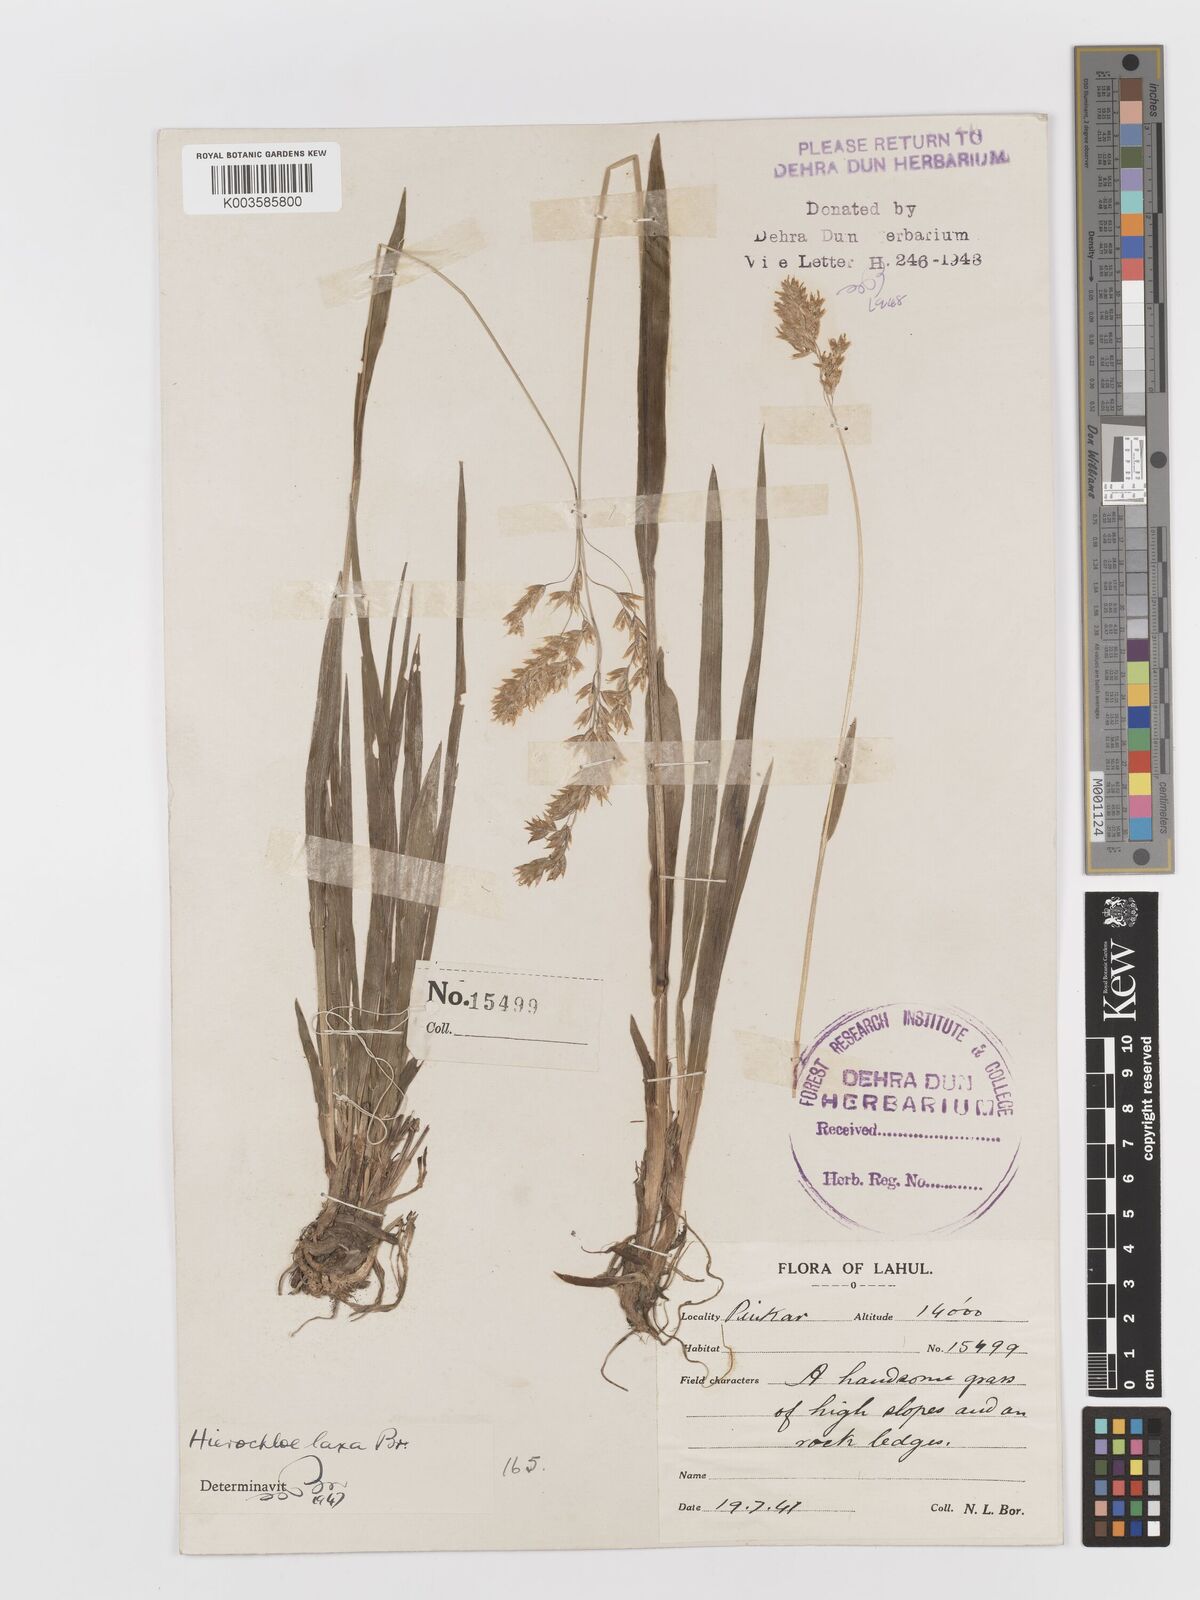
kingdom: Plantae
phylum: Tracheophyta
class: Liliopsida
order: Poales
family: Poaceae
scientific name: Poaceae
